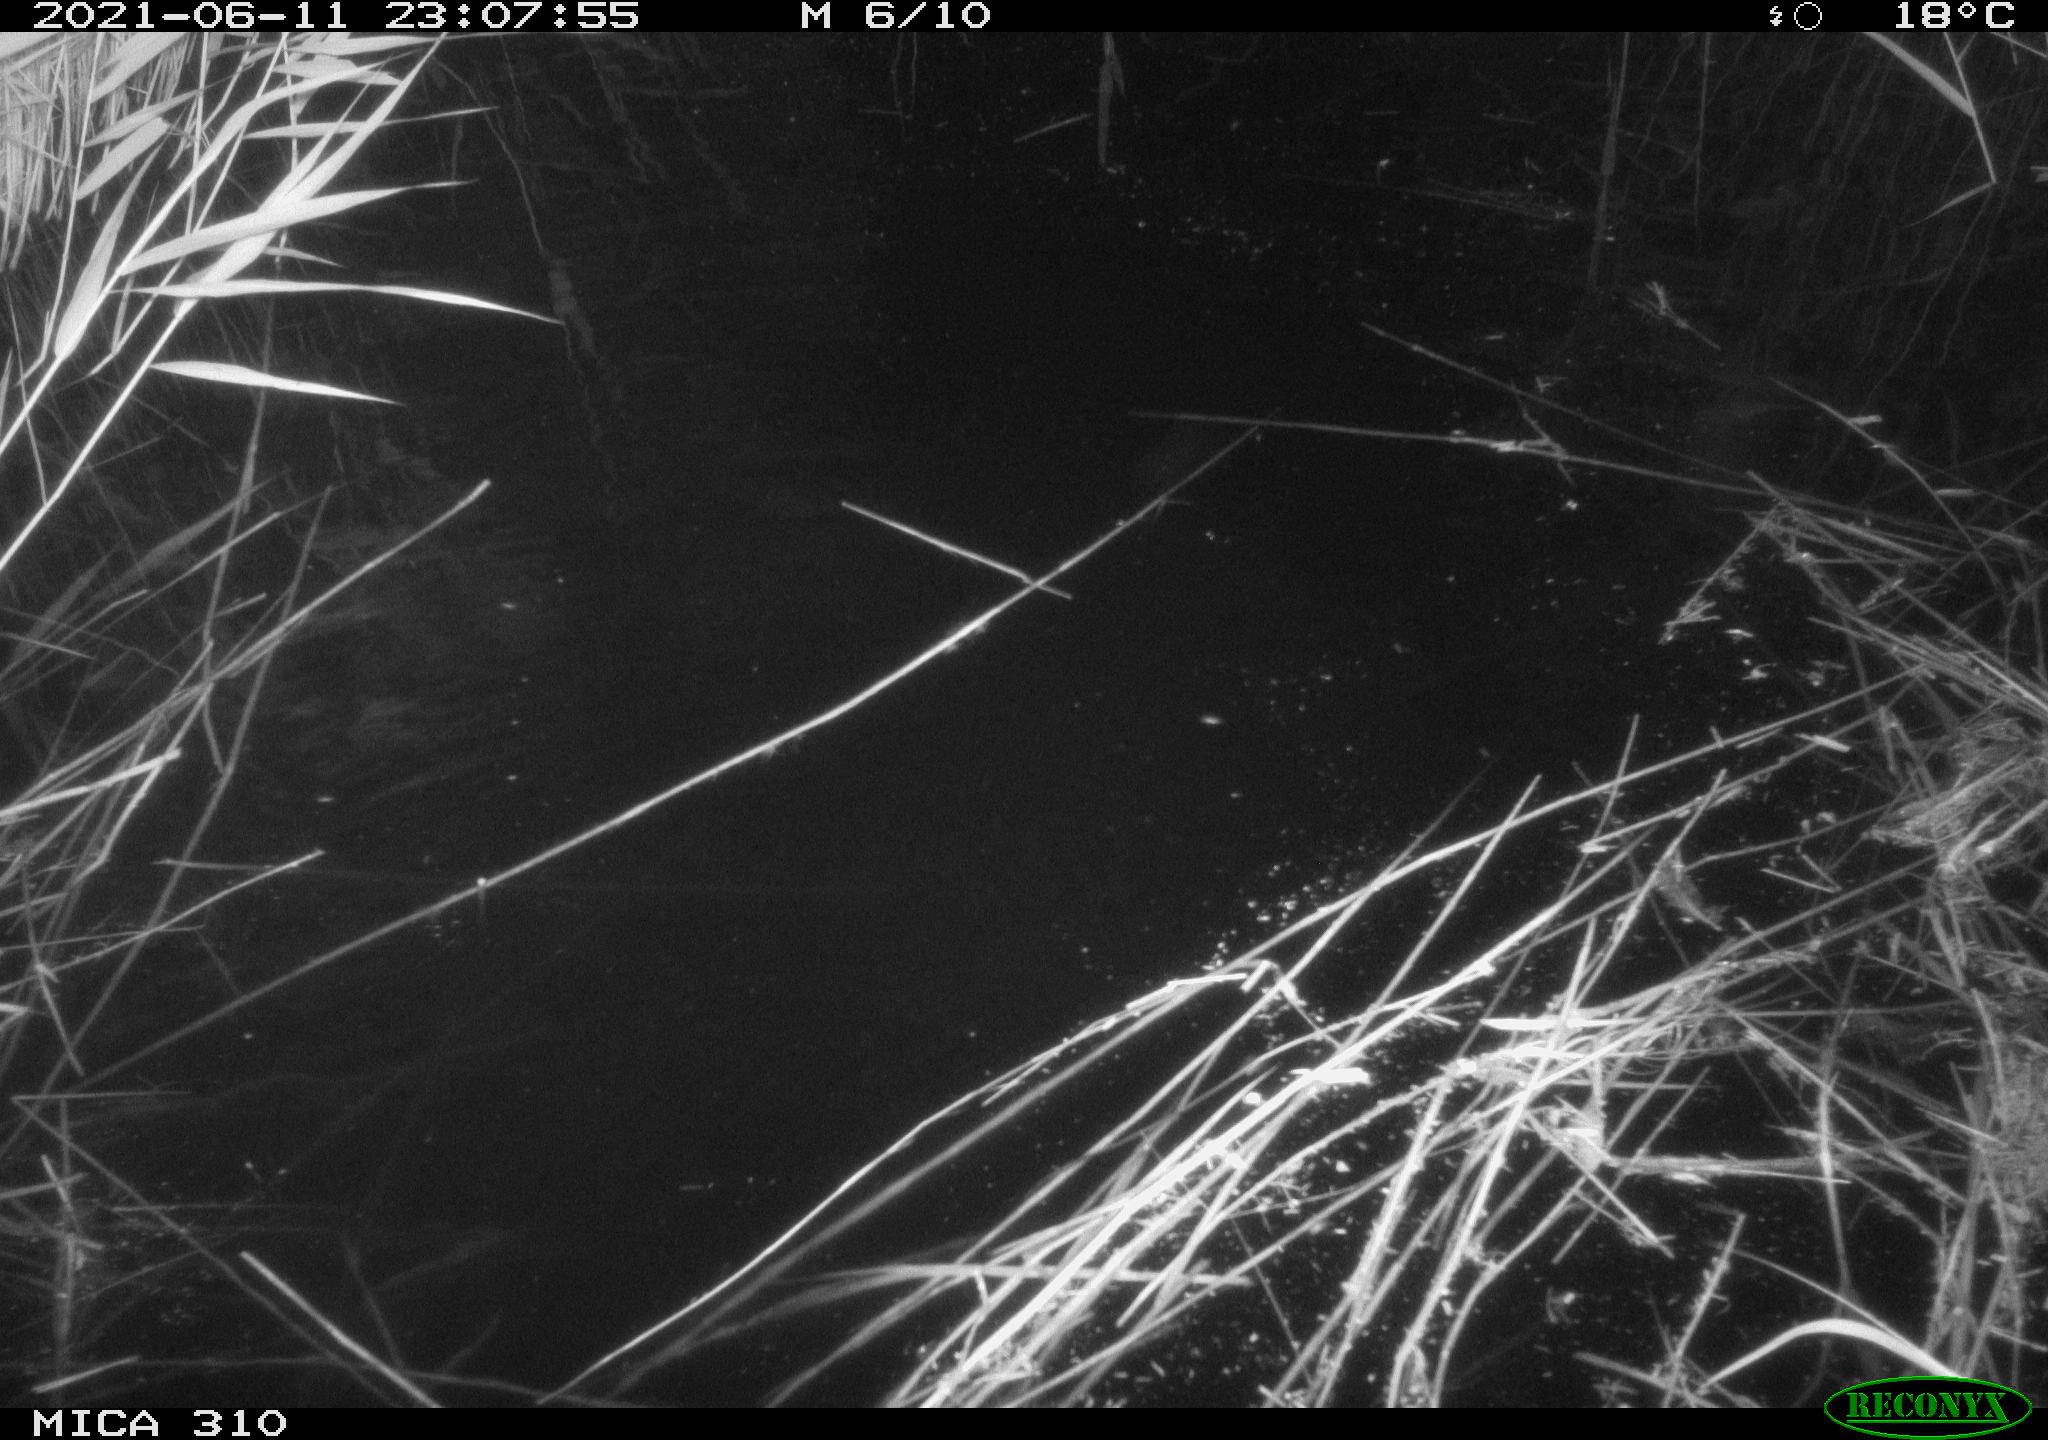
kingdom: Animalia
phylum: Chordata
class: Aves
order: Anseriformes
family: Anatidae
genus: Anas
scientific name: Anas
